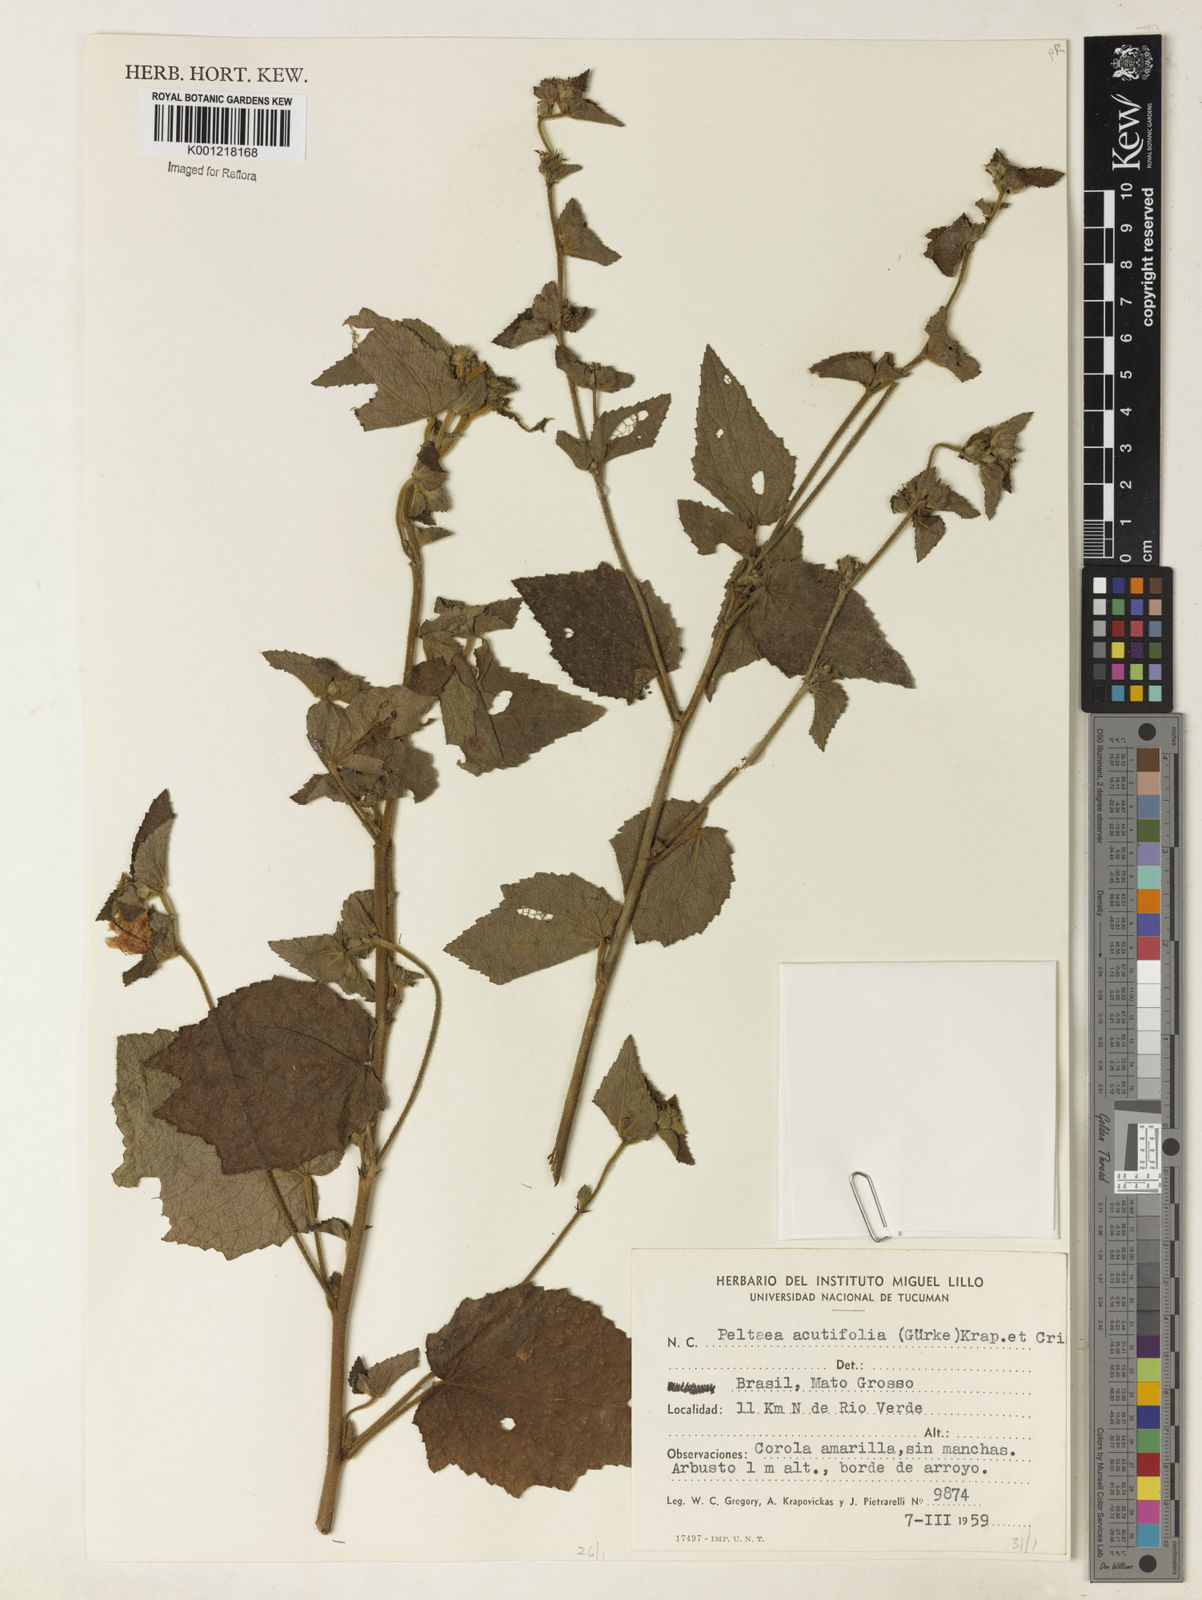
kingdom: Plantae
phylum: Tracheophyta
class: Magnoliopsida
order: Malvales
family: Malvaceae
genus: Peltaea
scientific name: Peltaea
